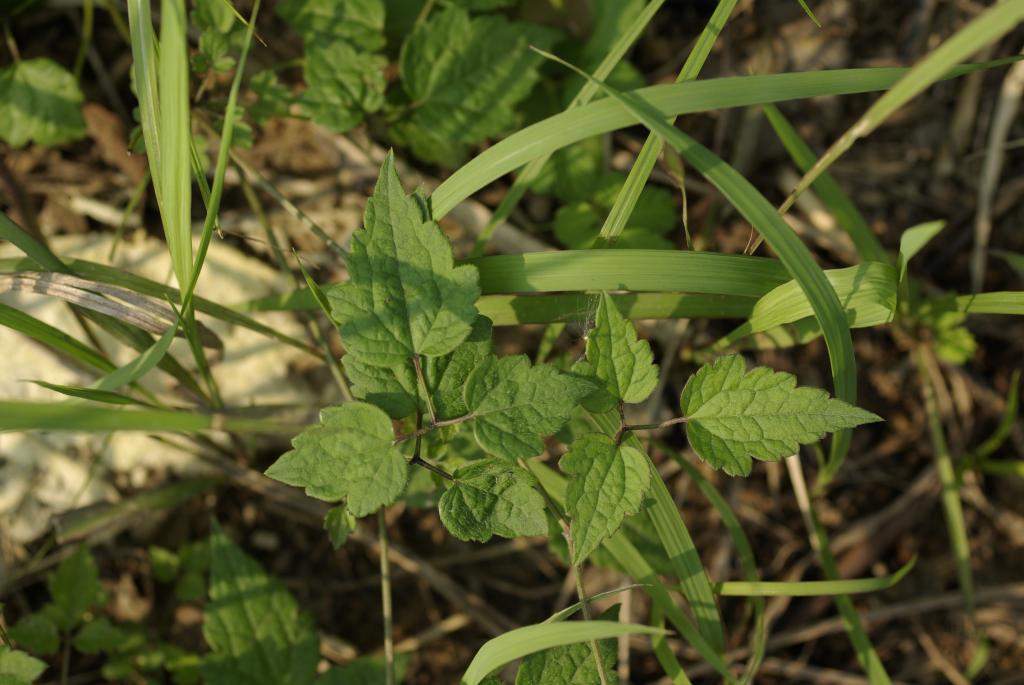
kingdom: Plantae
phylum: Tracheophyta
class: Magnoliopsida
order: Ranunculales
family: Ranunculaceae
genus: Clematis
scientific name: Clematis grata
